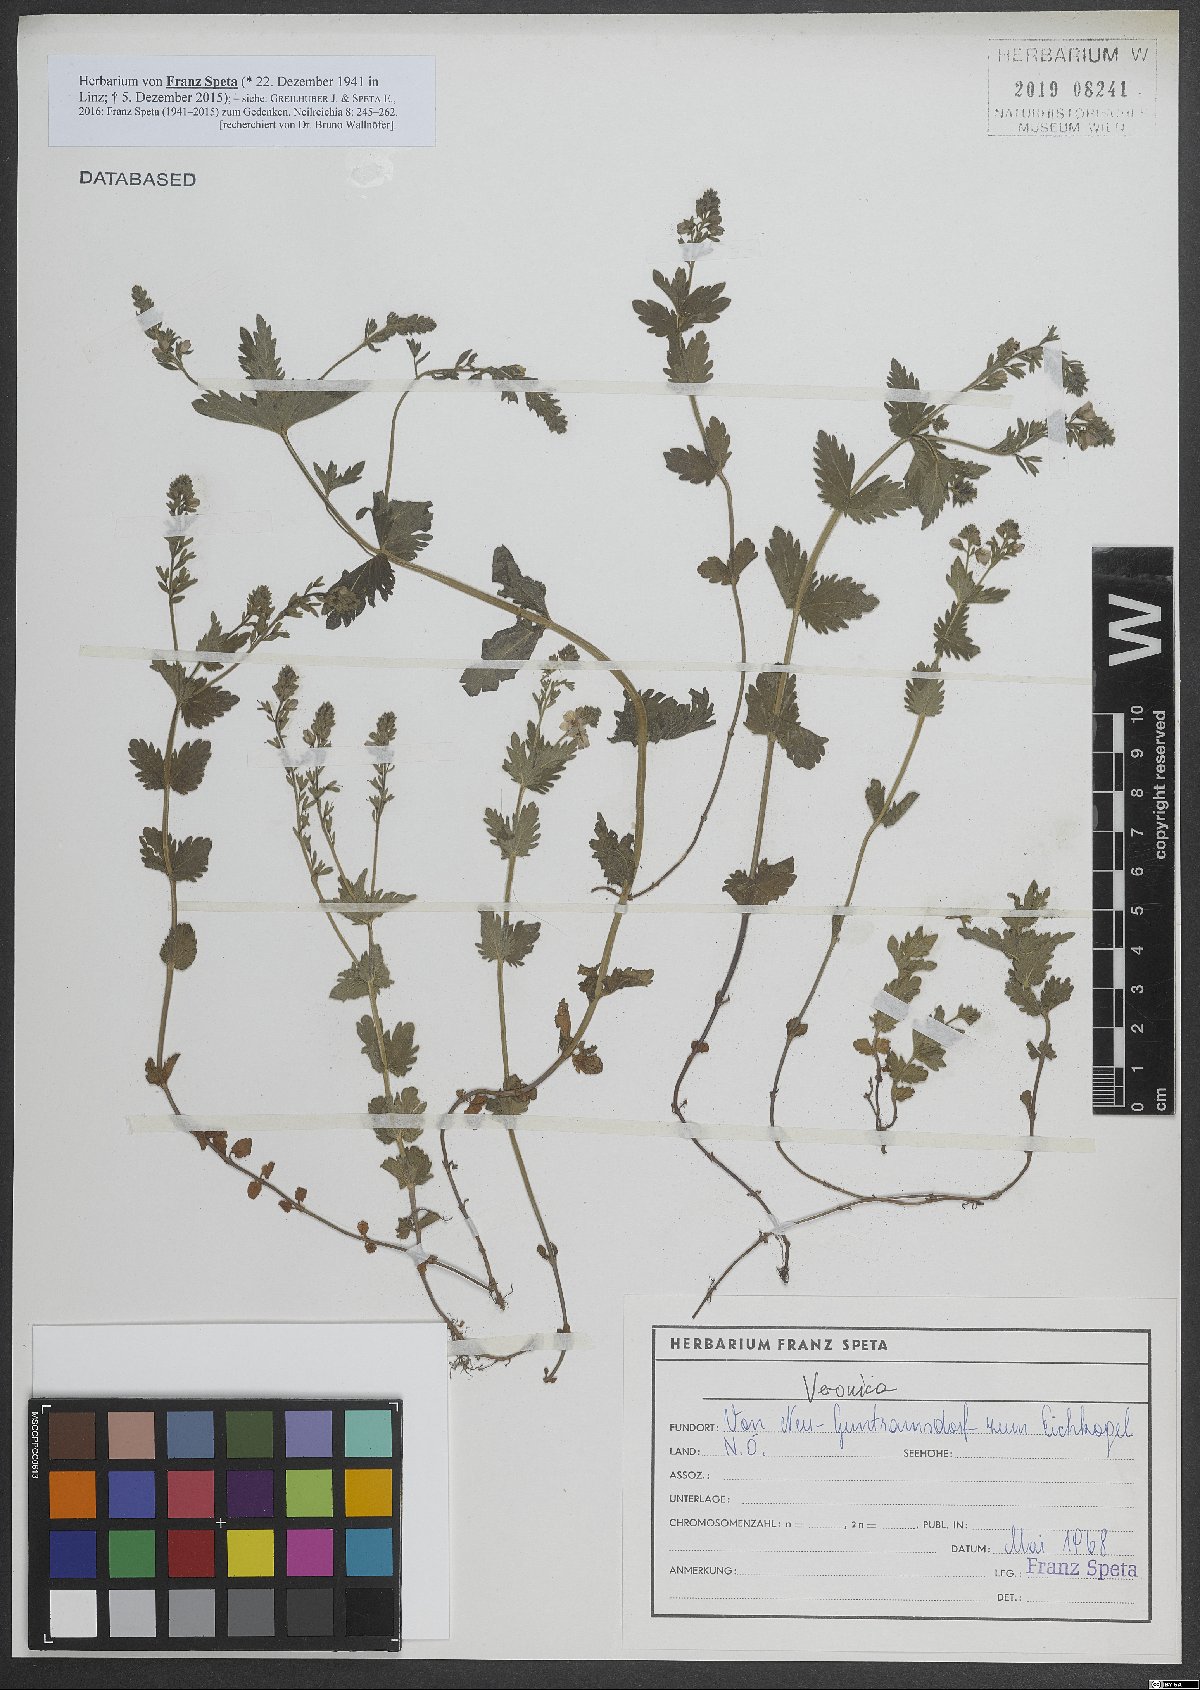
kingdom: Plantae
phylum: Tracheophyta
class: Magnoliopsida
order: Lamiales
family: Plantaginaceae
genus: Veronica
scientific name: Veronica
